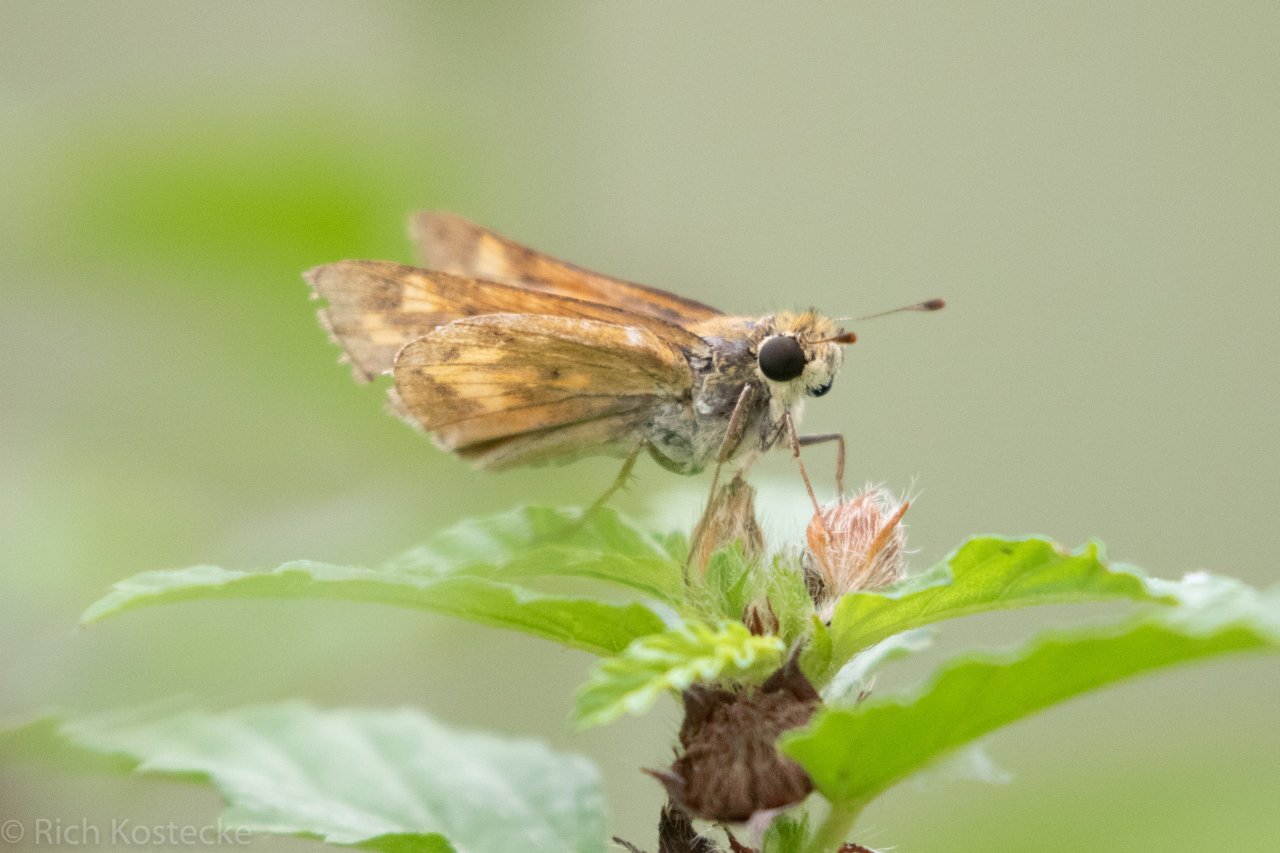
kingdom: Animalia
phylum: Arthropoda
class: Insecta
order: Lepidoptera
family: Hesperiidae
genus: Hylephila
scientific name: Hylephila phyleus
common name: Fiery Skipper
